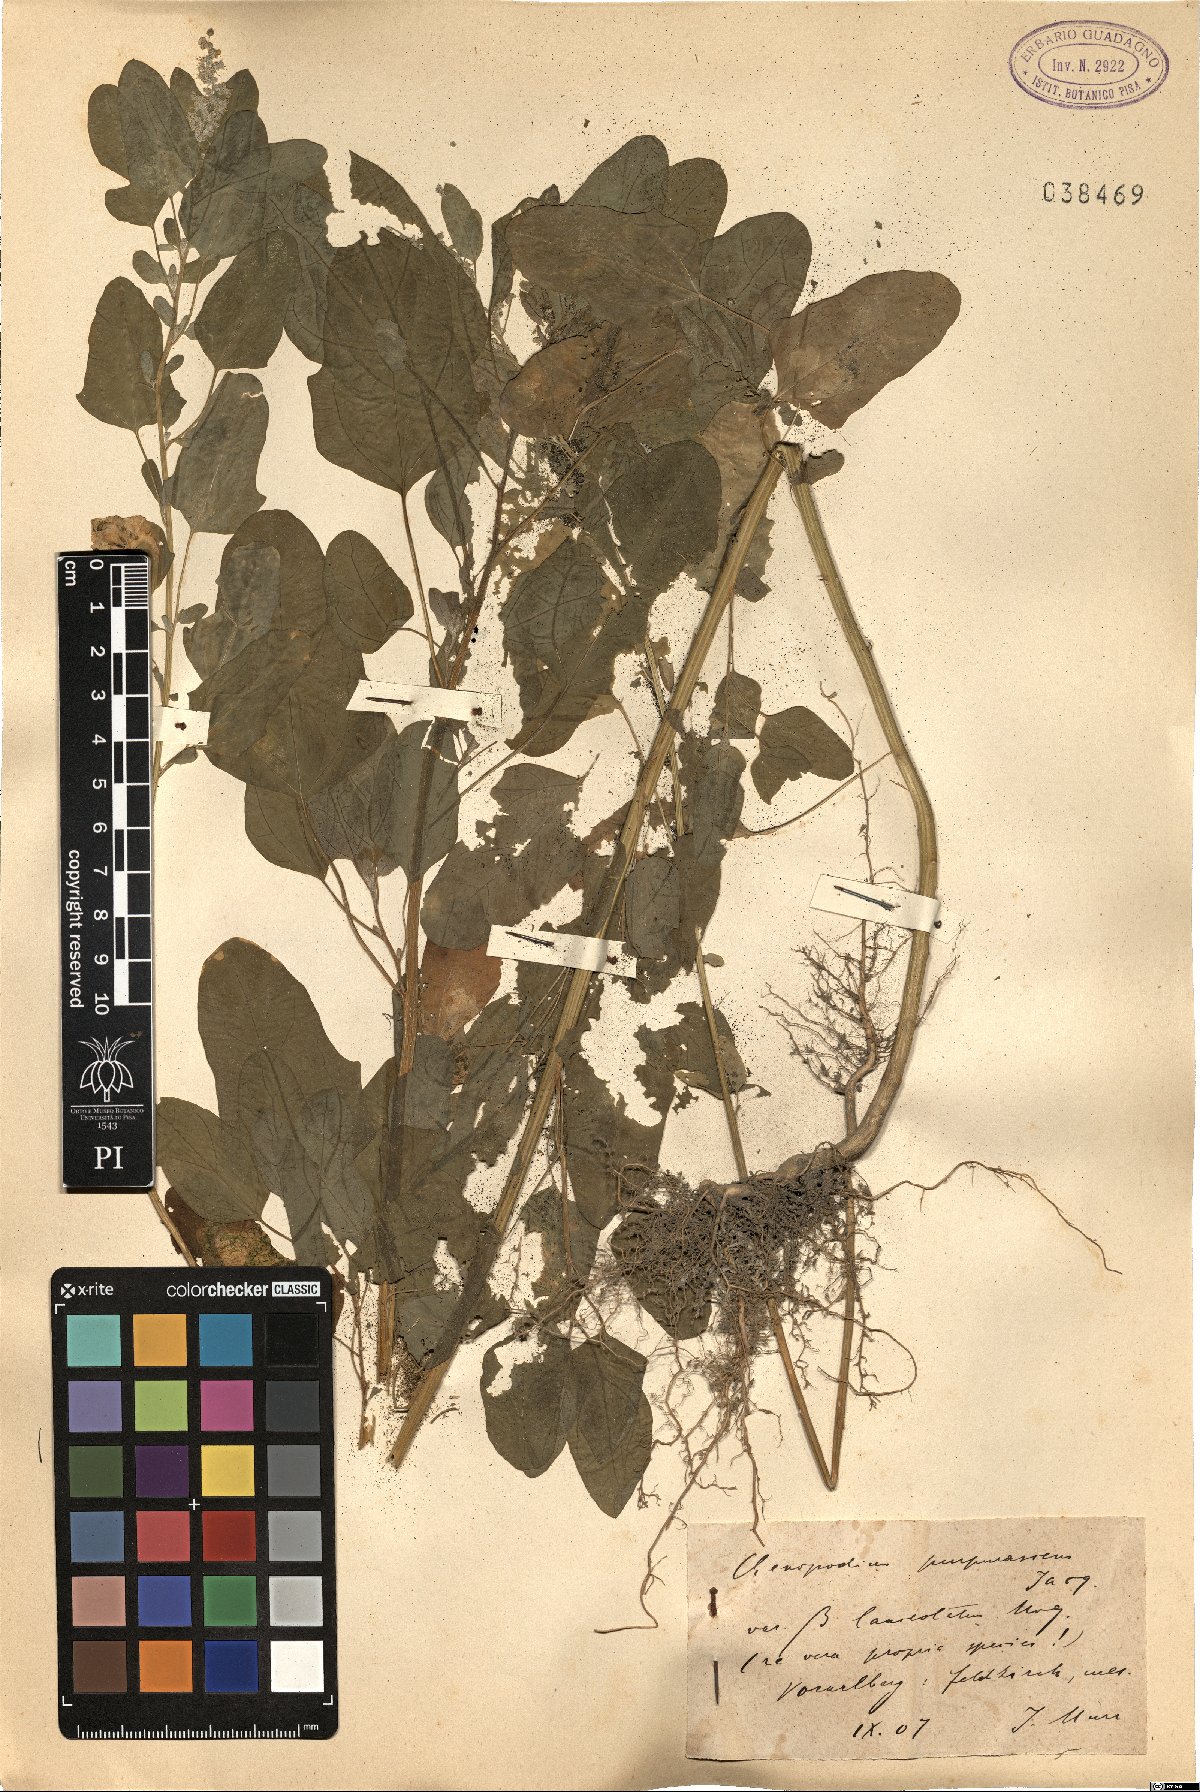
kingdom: Plantae
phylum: Tracheophyta
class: Magnoliopsida
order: Caryophyllales
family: Amaranthaceae
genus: Chenopodium
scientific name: Chenopodium quinoa
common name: Quinoa
